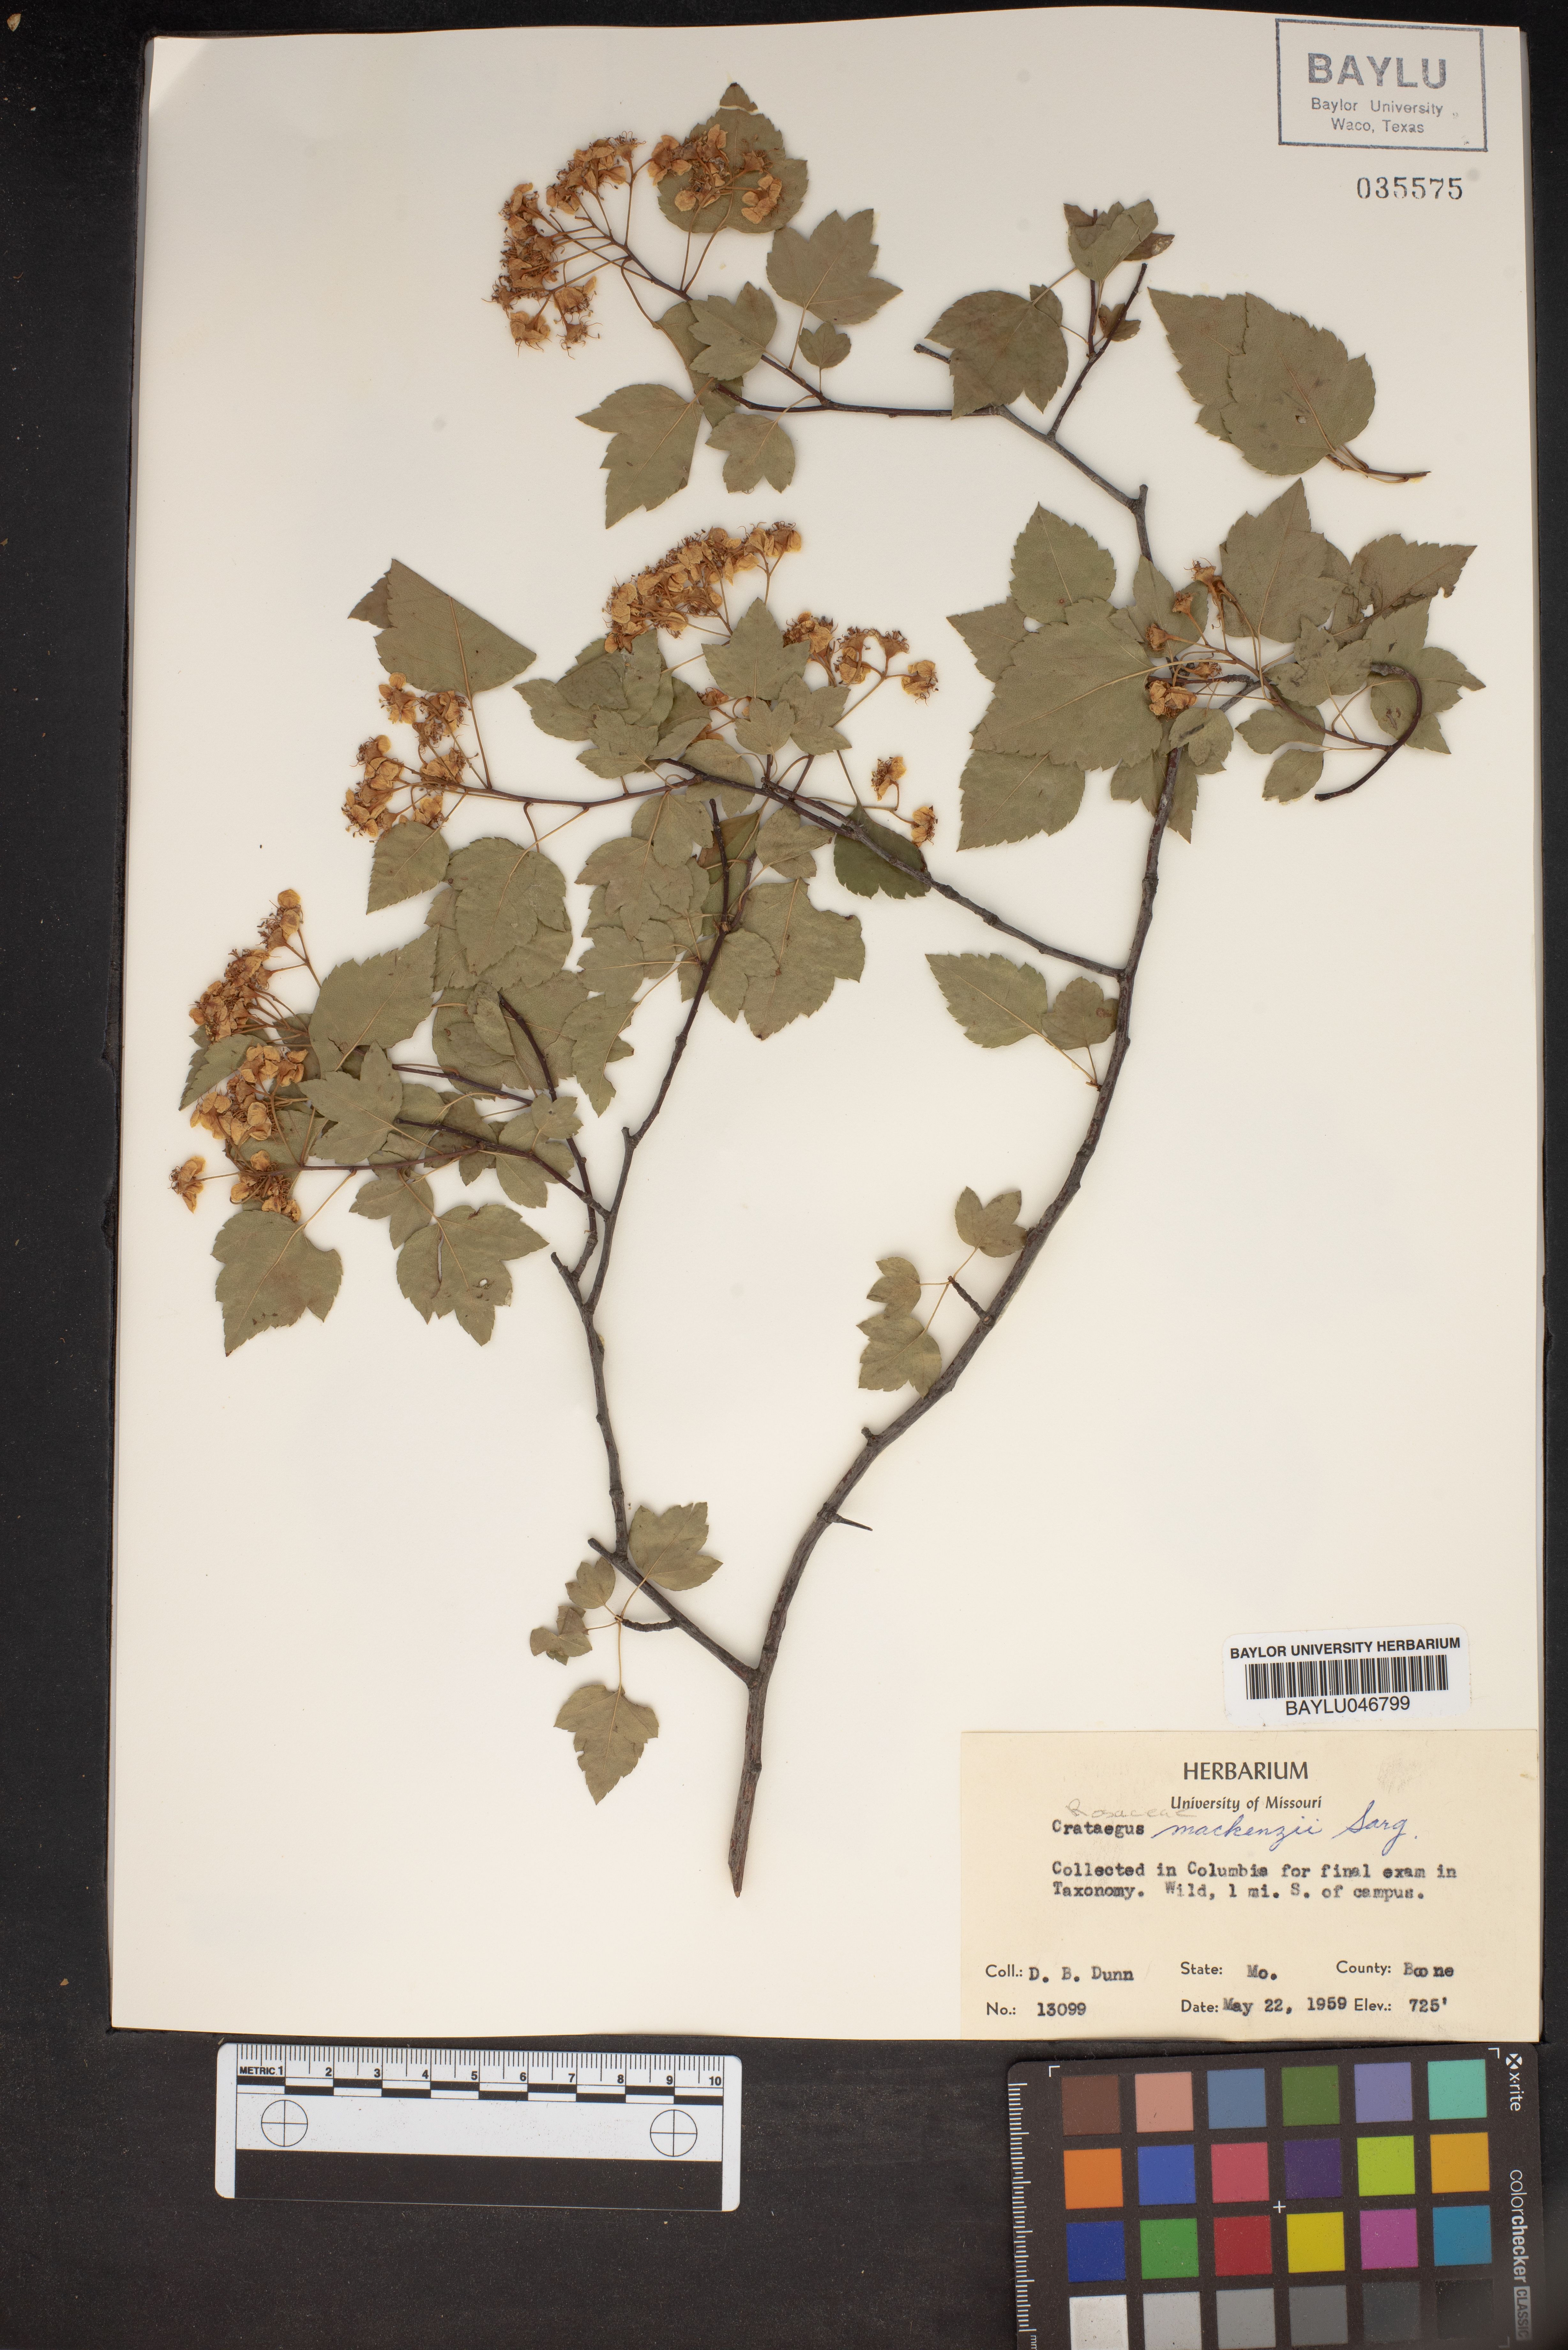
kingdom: Plantae
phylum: Tracheophyta
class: Magnoliopsida
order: Rosales
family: Rosaceae
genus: Crataegus
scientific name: Crataegus mackenziei
